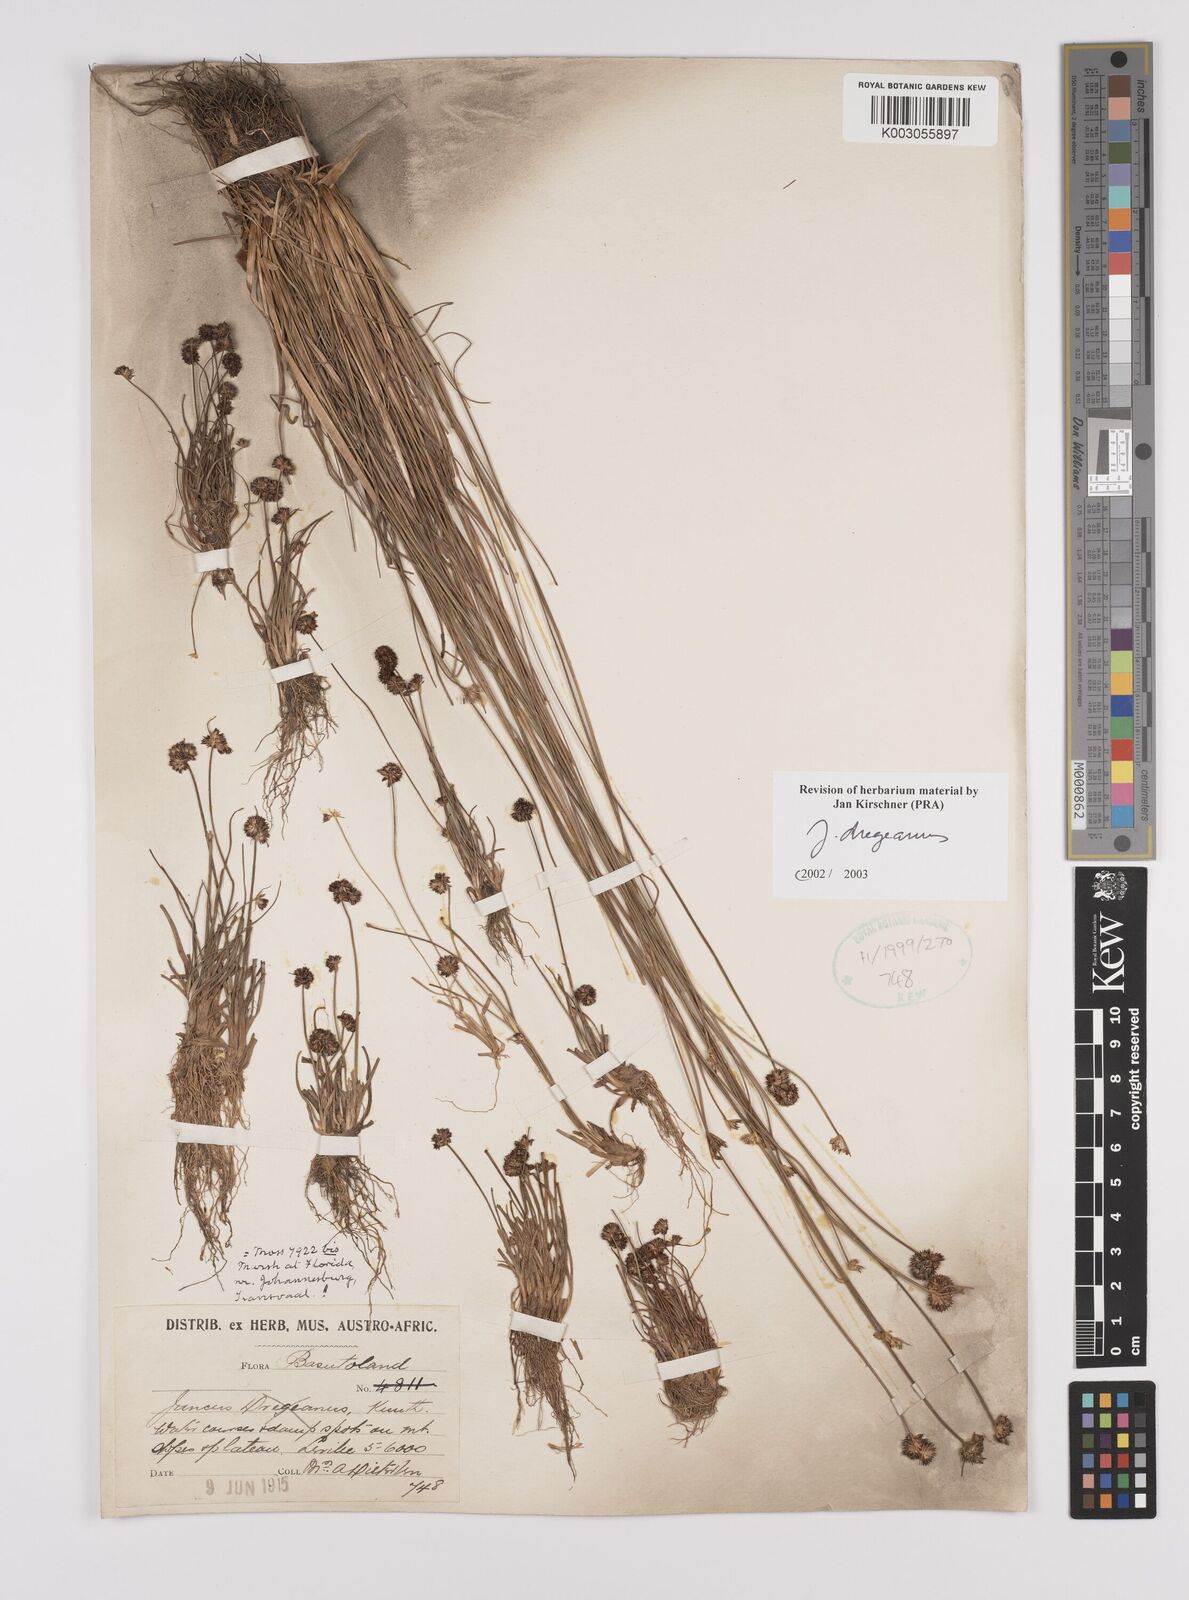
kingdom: Plantae
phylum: Tracheophyta
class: Liliopsida
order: Poales
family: Juncaceae
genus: Juncus
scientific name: Juncus dregeanus
